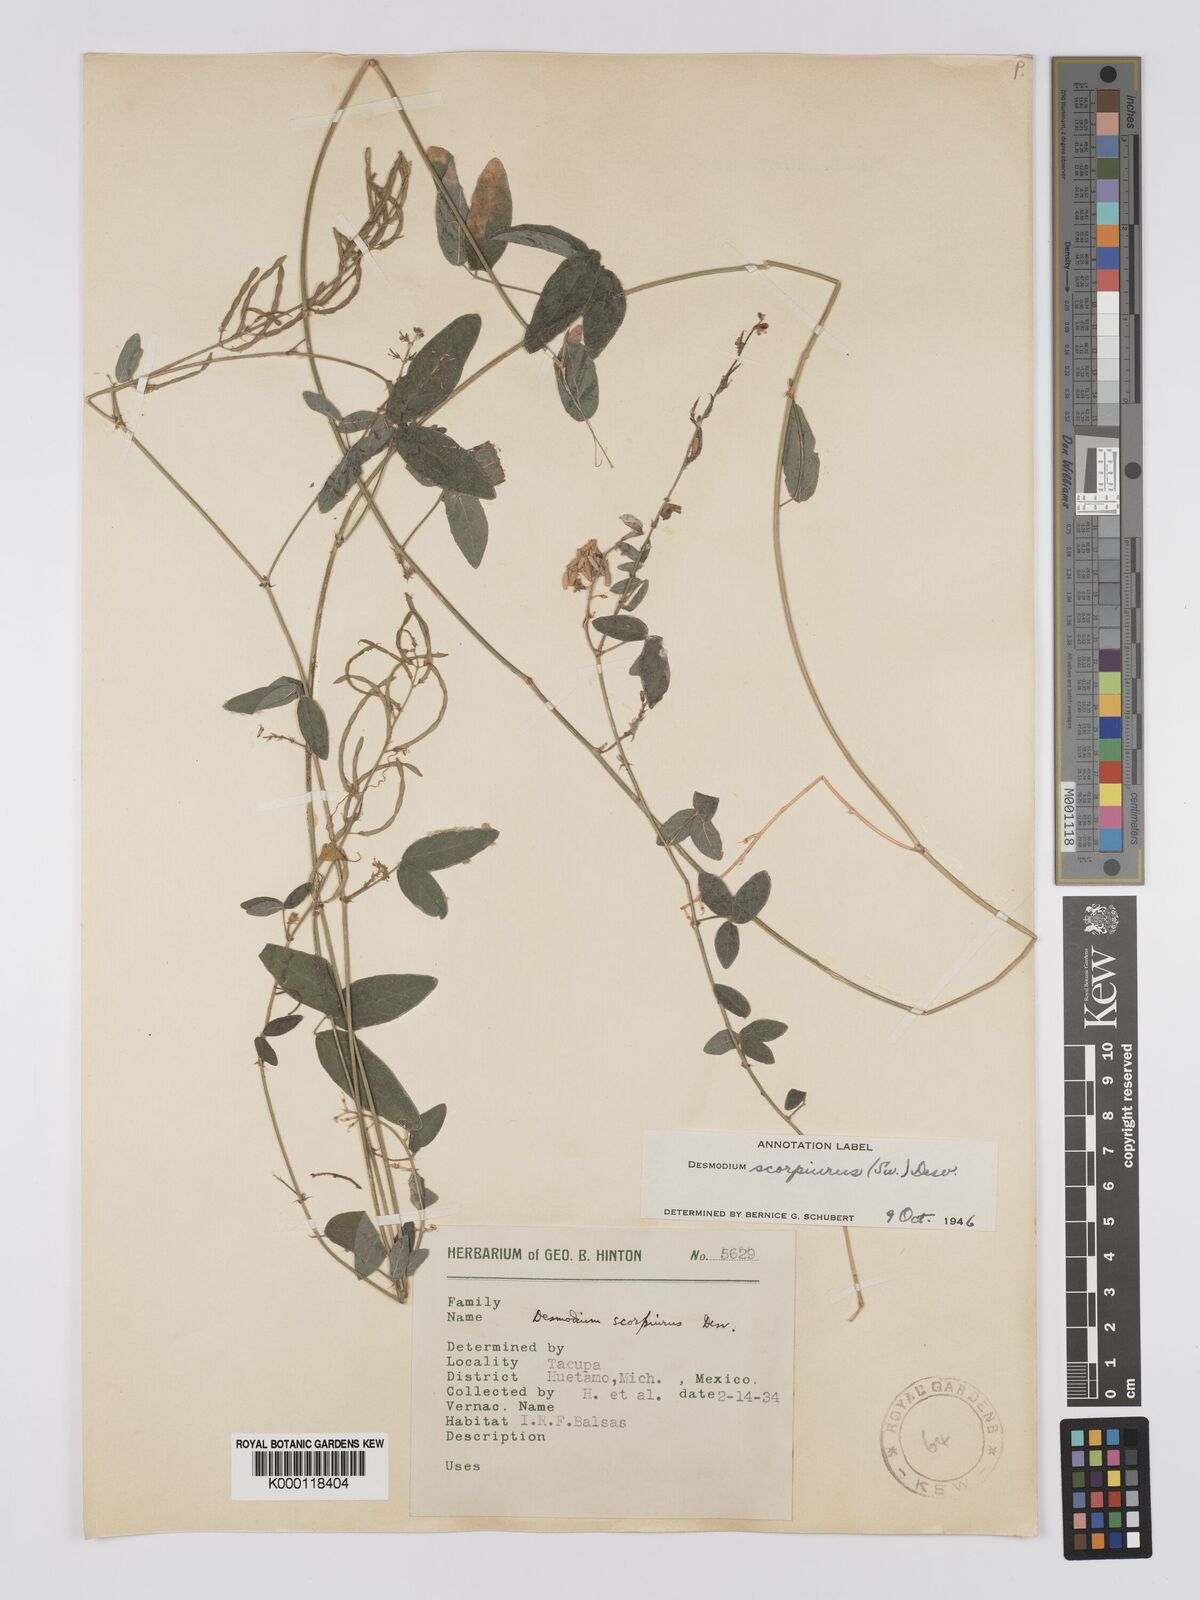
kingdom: Plantae
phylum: Tracheophyta
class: Magnoliopsida
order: Fabales
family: Fabaceae
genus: Desmodium
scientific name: Desmodium
